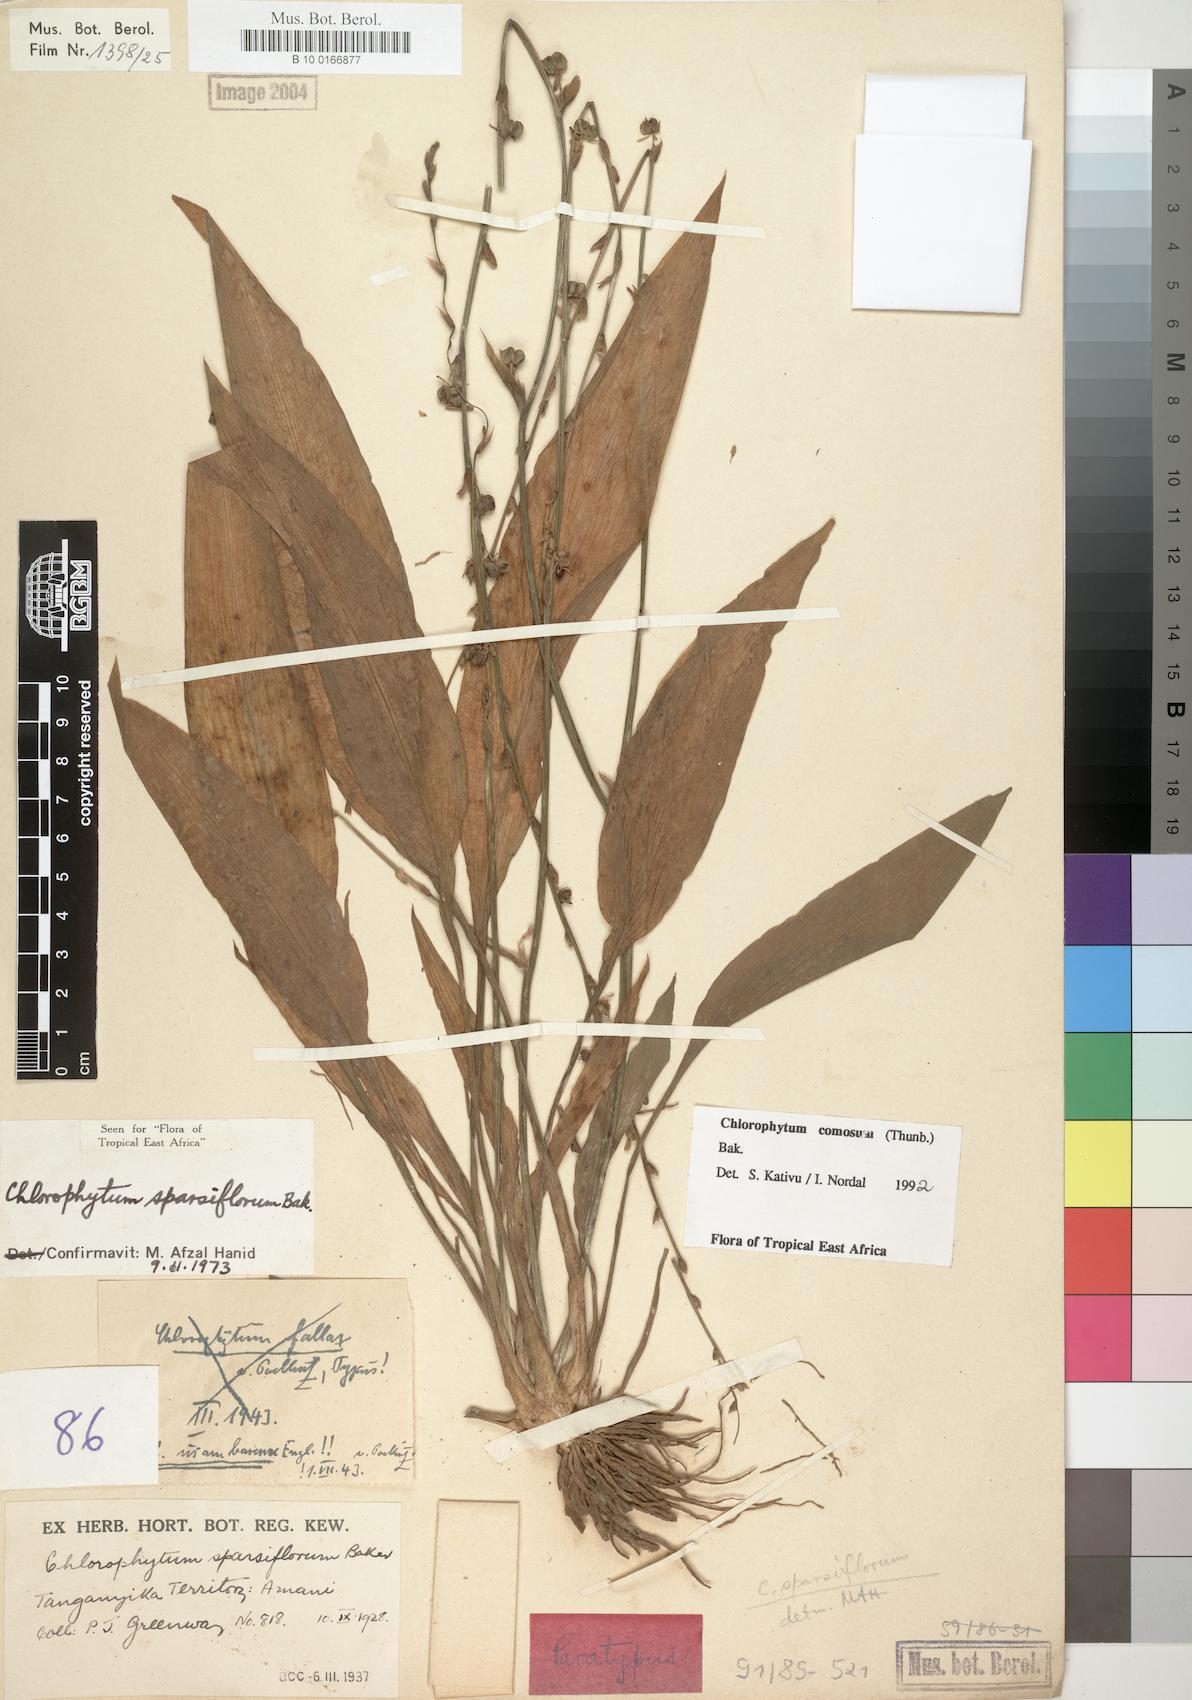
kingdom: Plantae
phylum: Tracheophyta
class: Liliopsida
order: Asparagales
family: Asparagaceae
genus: Chlorophytum
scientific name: Chlorophytum comosum
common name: Spider plant
